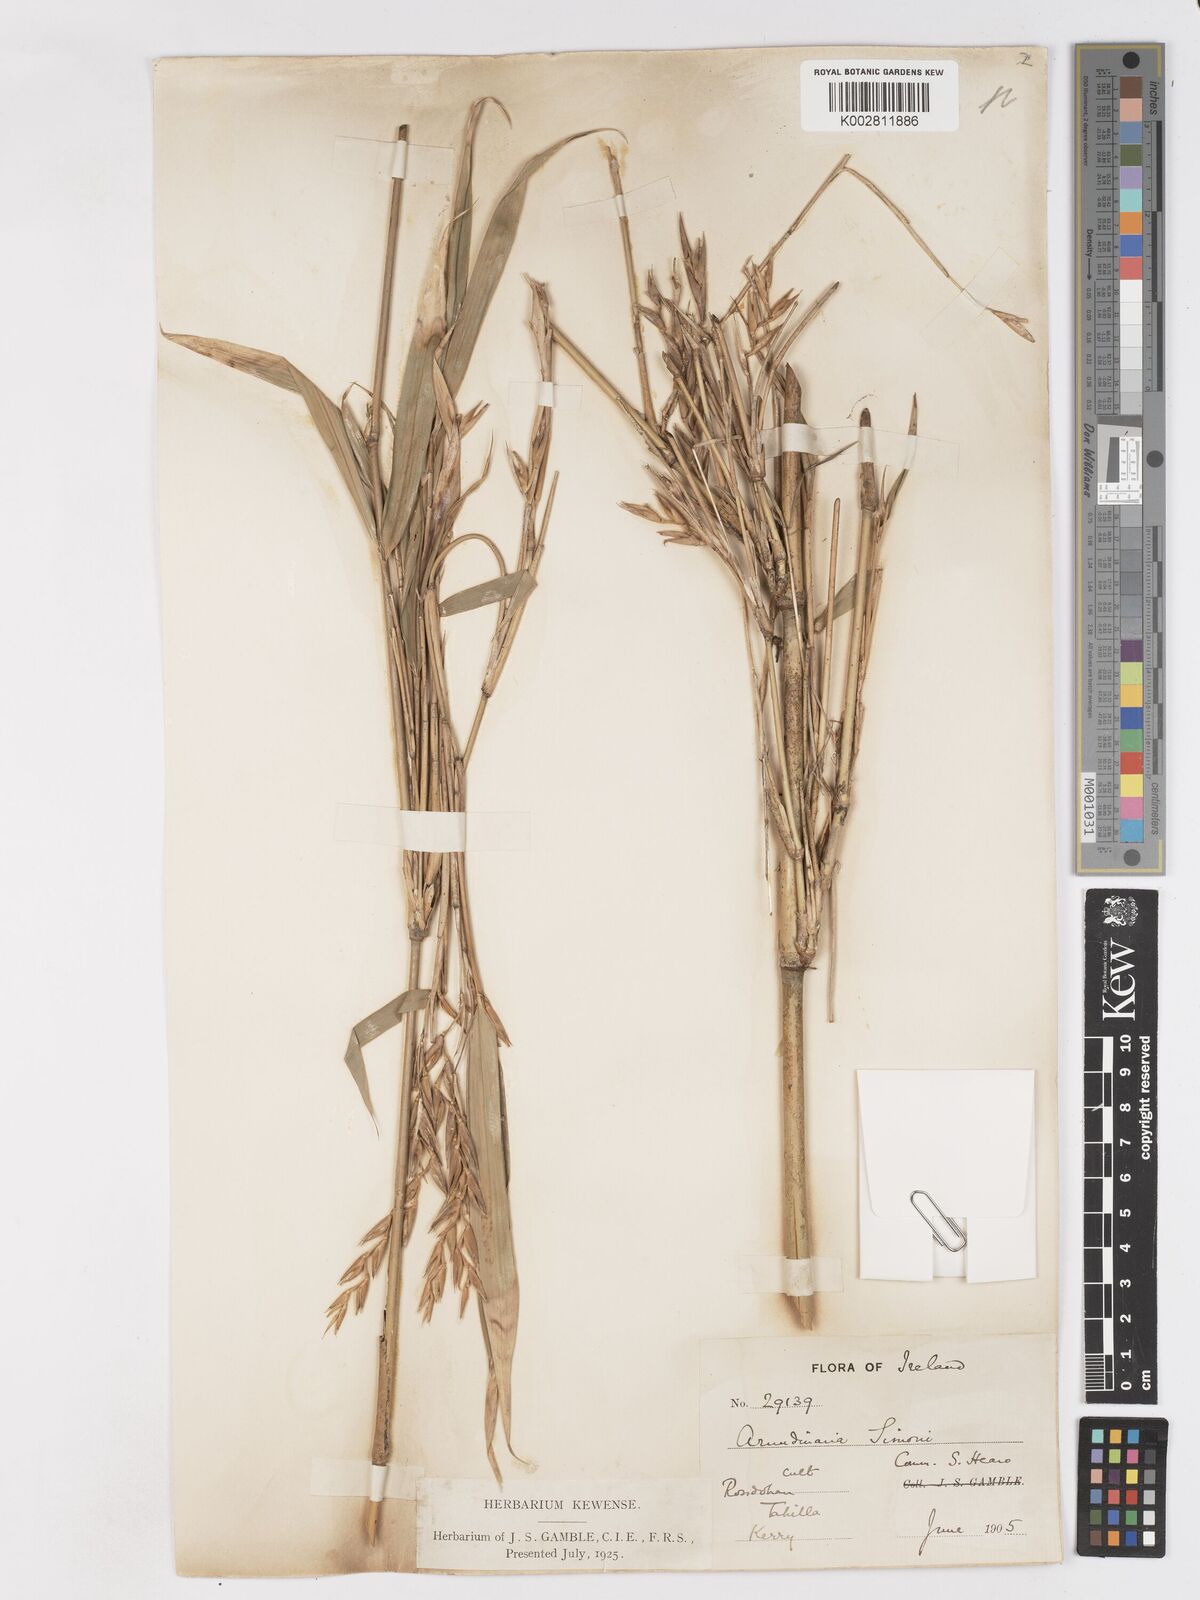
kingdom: Plantae
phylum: Tracheophyta
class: Liliopsida
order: Poales
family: Poaceae
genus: Pleioblastus
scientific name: Pleioblastus simonii
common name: Simon bamboo
